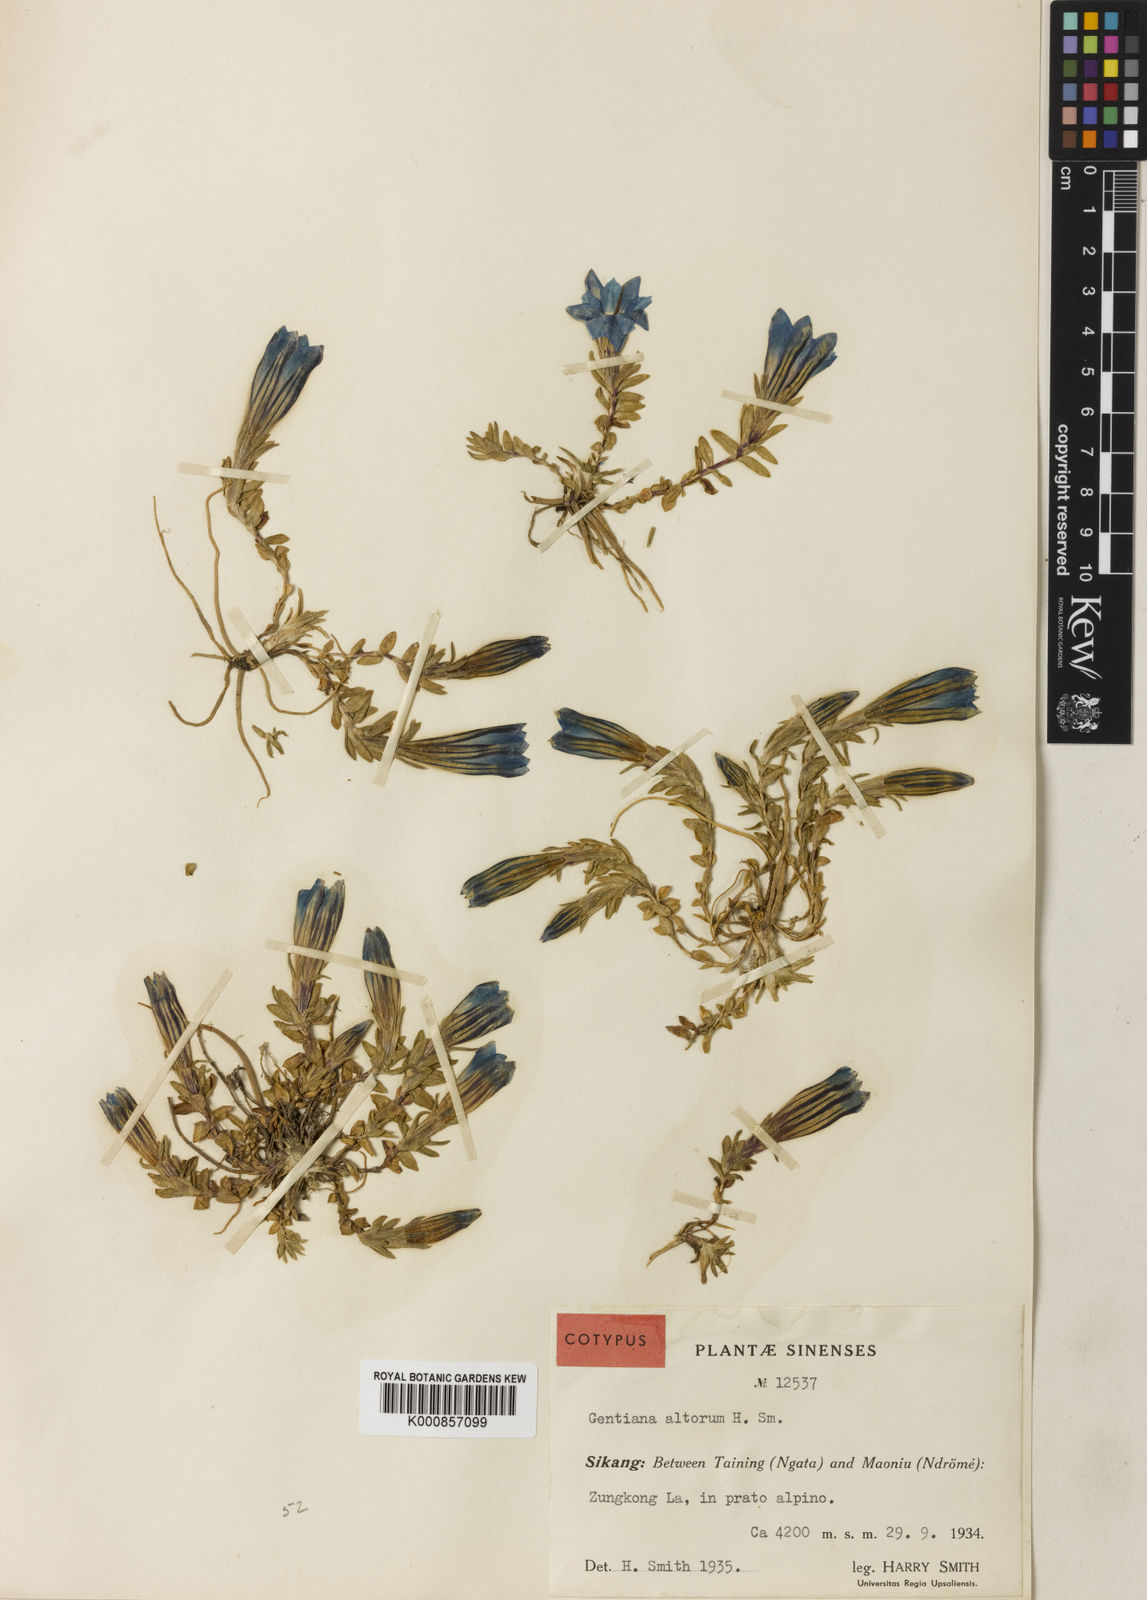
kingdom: Plantae
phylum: Tracheophyta
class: Magnoliopsida
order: Gentianales
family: Gentianaceae
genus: Gentiana
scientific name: Gentiana
